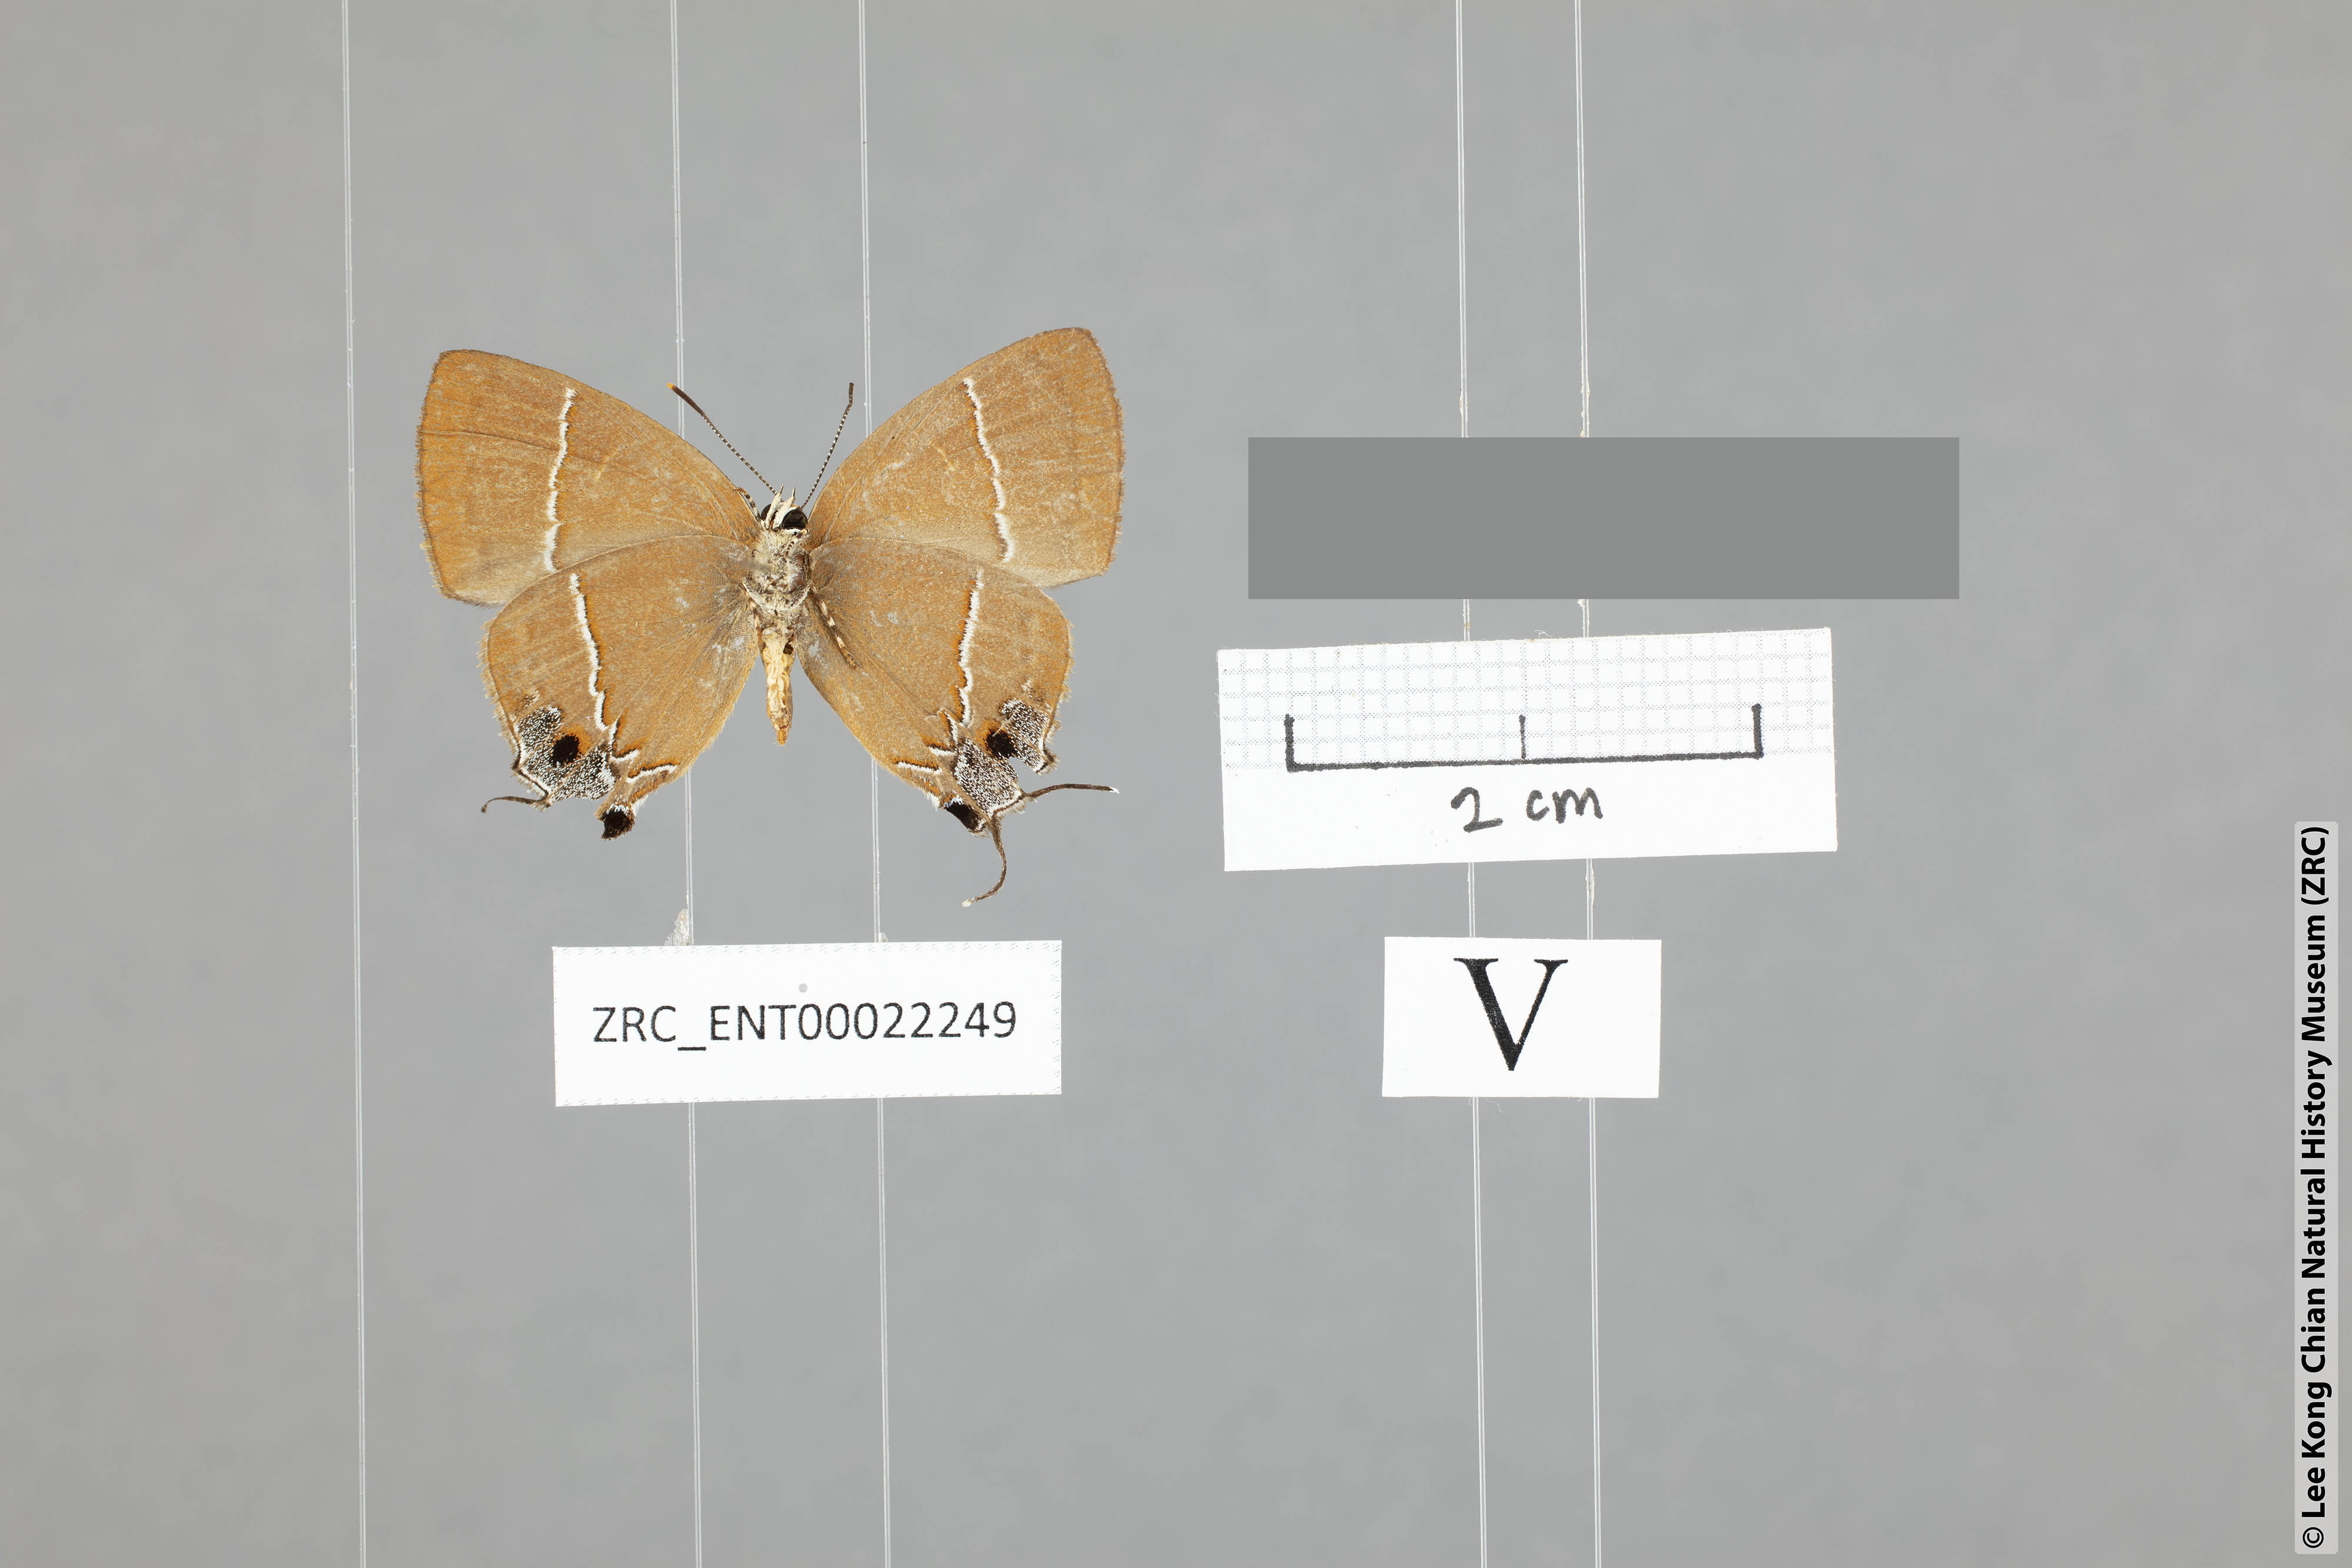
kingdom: Animalia
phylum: Arthropoda
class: Insecta
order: Lepidoptera
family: Lycaenidae
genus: Tajuria
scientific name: Tajuria yajna
